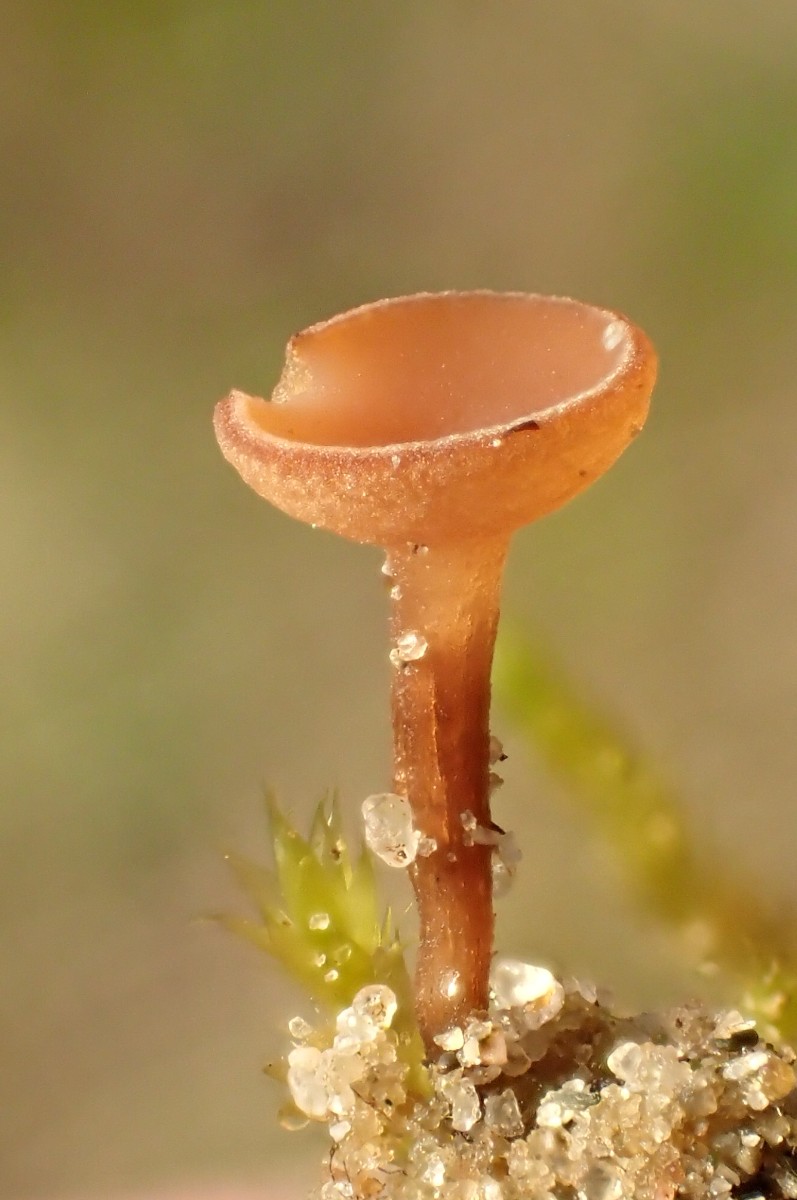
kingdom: Fungi
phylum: Ascomycota
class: Leotiomycetes
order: Helotiales
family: Sclerotiniaceae
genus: Sclerotinia
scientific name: Sclerotinia trifoliorum
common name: ærte-knoldskive
